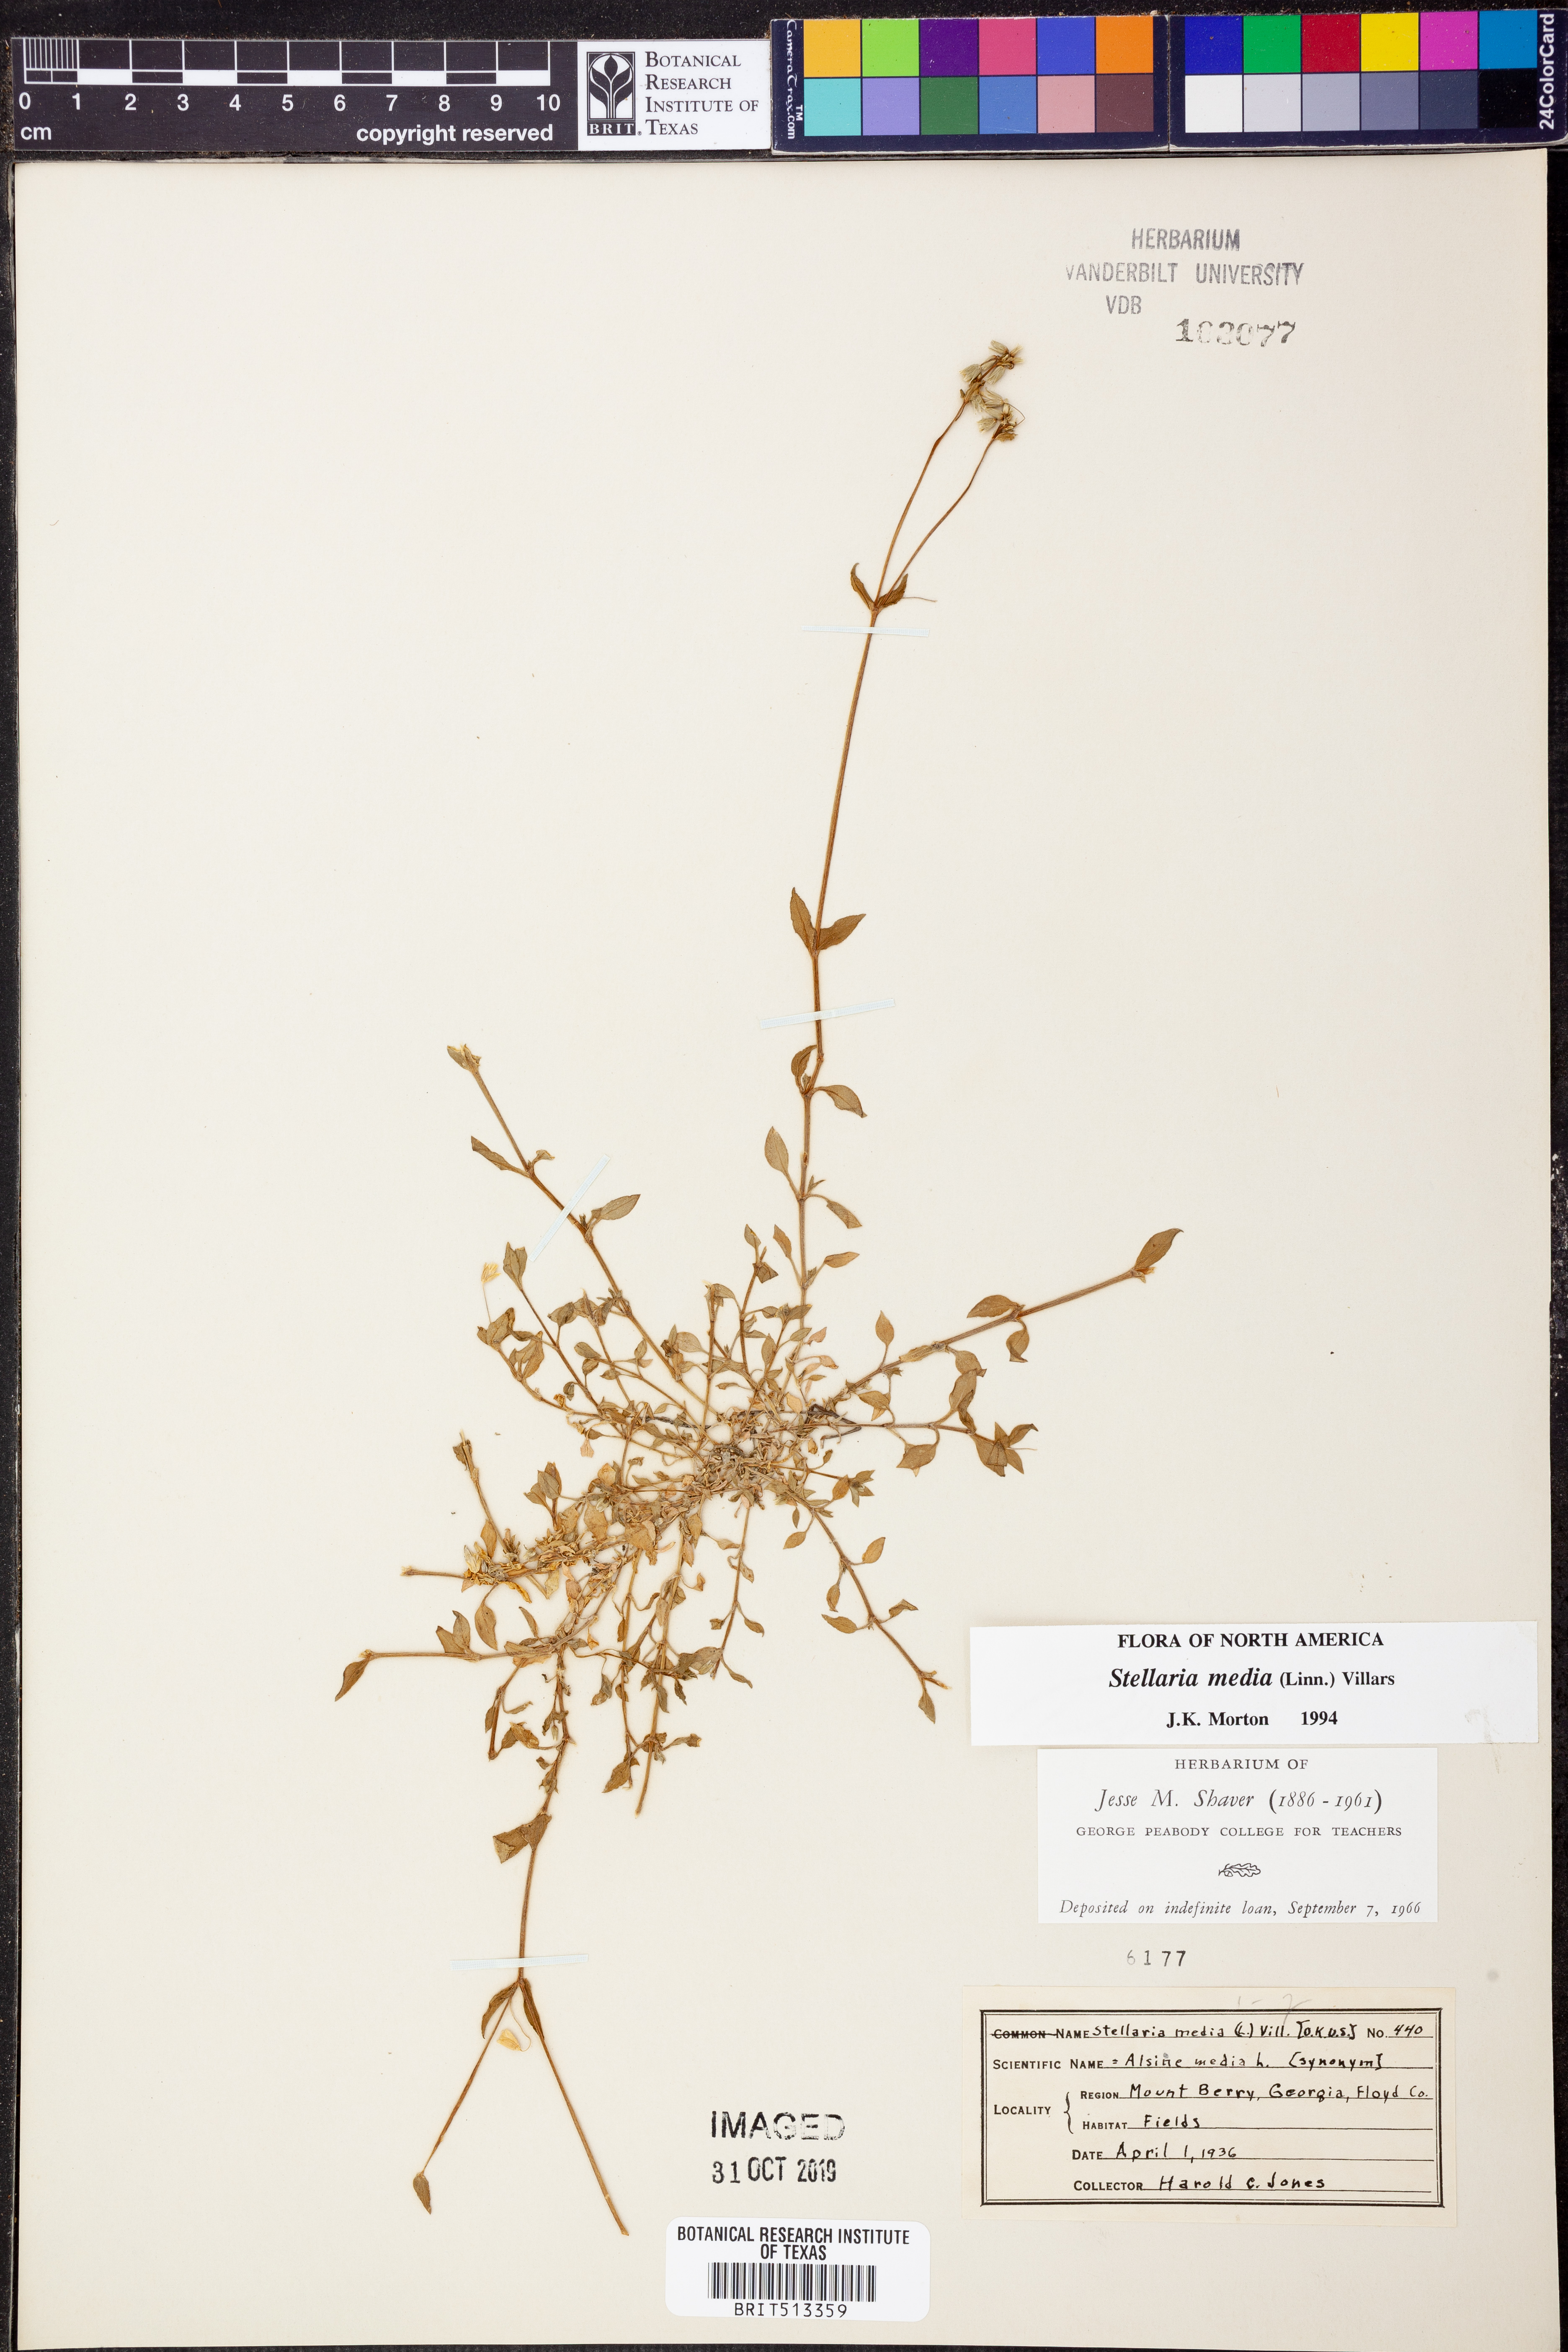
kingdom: Plantae
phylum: Tracheophyta
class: Magnoliopsida
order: Caryophyllales
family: Caryophyllaceae
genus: Stellaria
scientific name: Stellaria media
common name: Common chickweed
